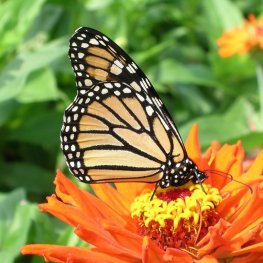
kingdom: Animalia
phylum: Arthropoda
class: Insecta
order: Lepidoptera
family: Nymphalidae
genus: Danaus
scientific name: Danaus plexippus
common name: Monarch
